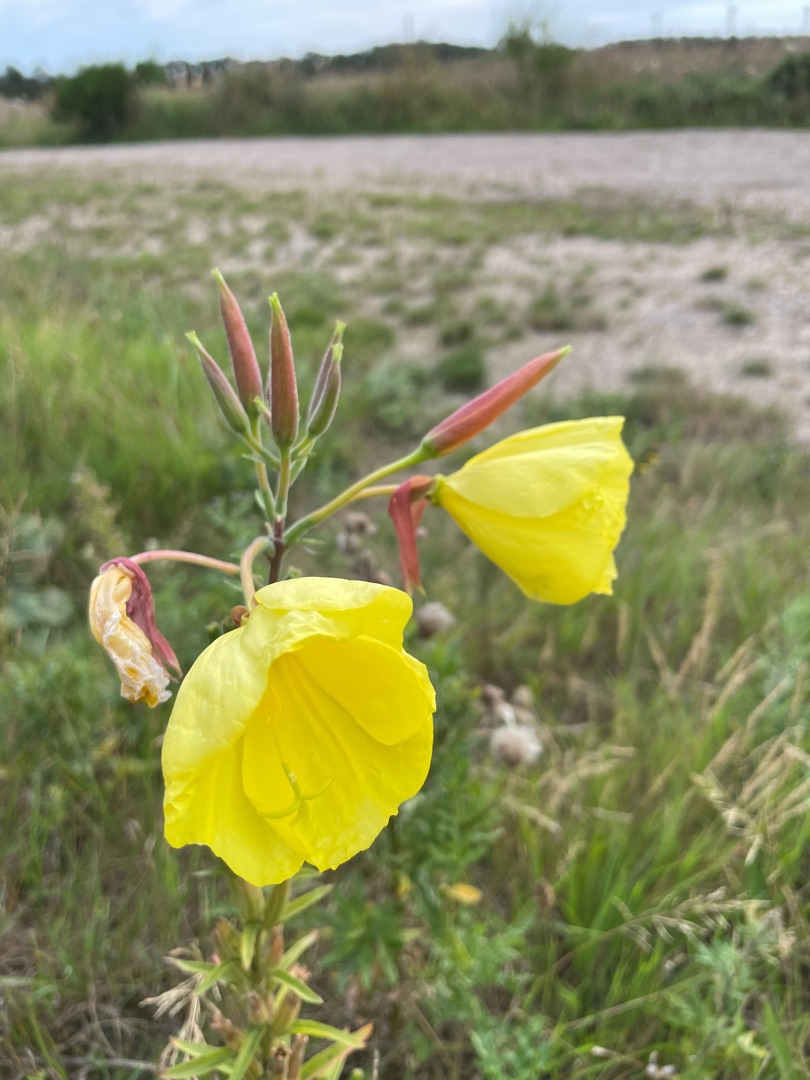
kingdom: Plantae
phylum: Tracheophyta
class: Magnoliopsida
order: Myrtales
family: Onagraceae
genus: Oenothera
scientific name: Oenothera glazioviana
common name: Kæmpe-natlys
